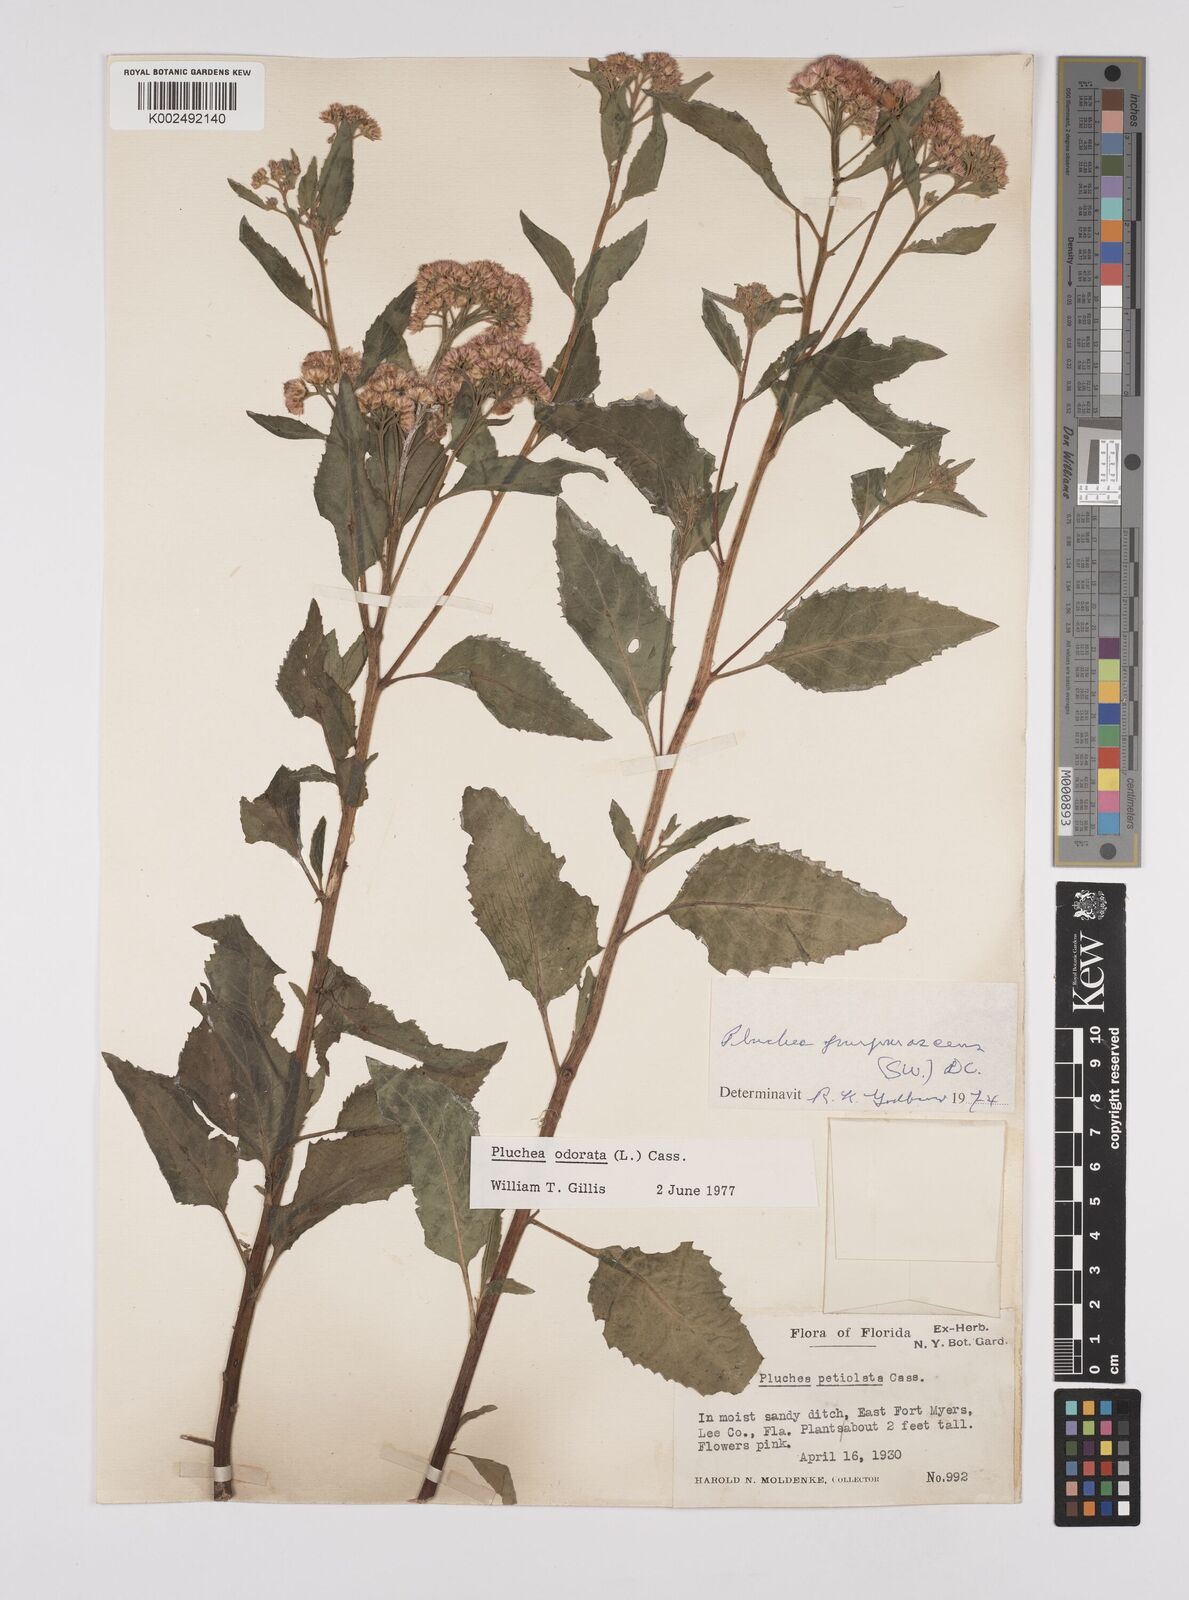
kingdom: Plantae
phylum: Tracheophyta
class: Magnoliopsida
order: Asterales
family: Asteraceae
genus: Pluchea
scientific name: Pluchea odorata
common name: Saltmarsh fleabane
